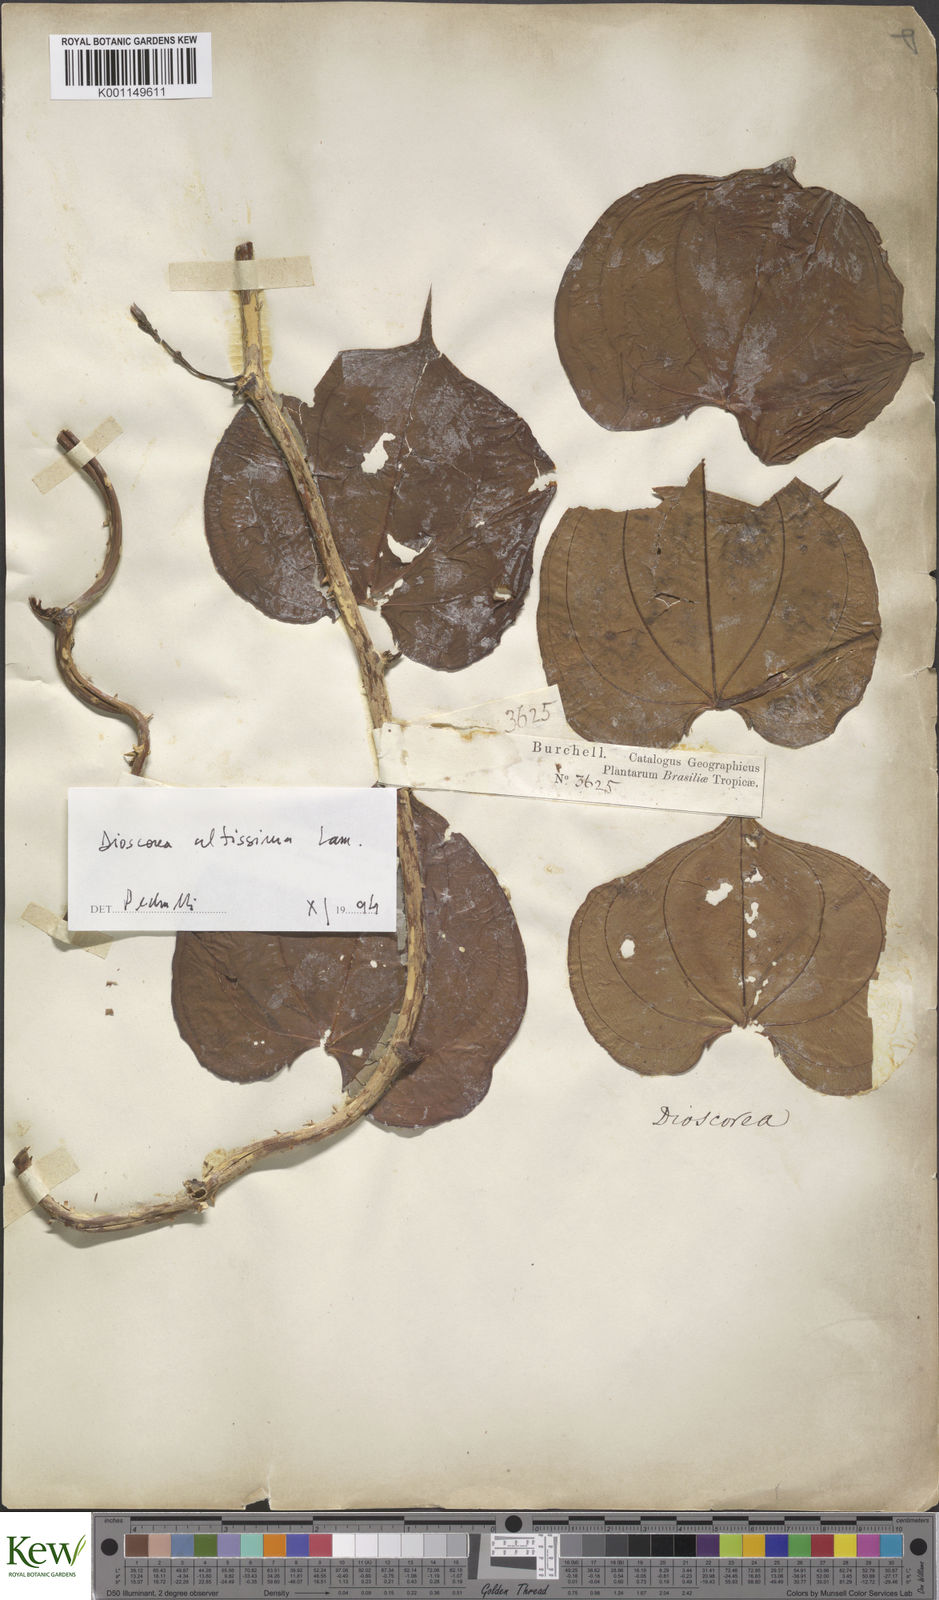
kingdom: Plantae
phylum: Tracheophyta
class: Liliopsida
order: Dioscoreales
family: Dioscoreaceae
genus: Dioscorea
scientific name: Dioscorea chondrocarpa
